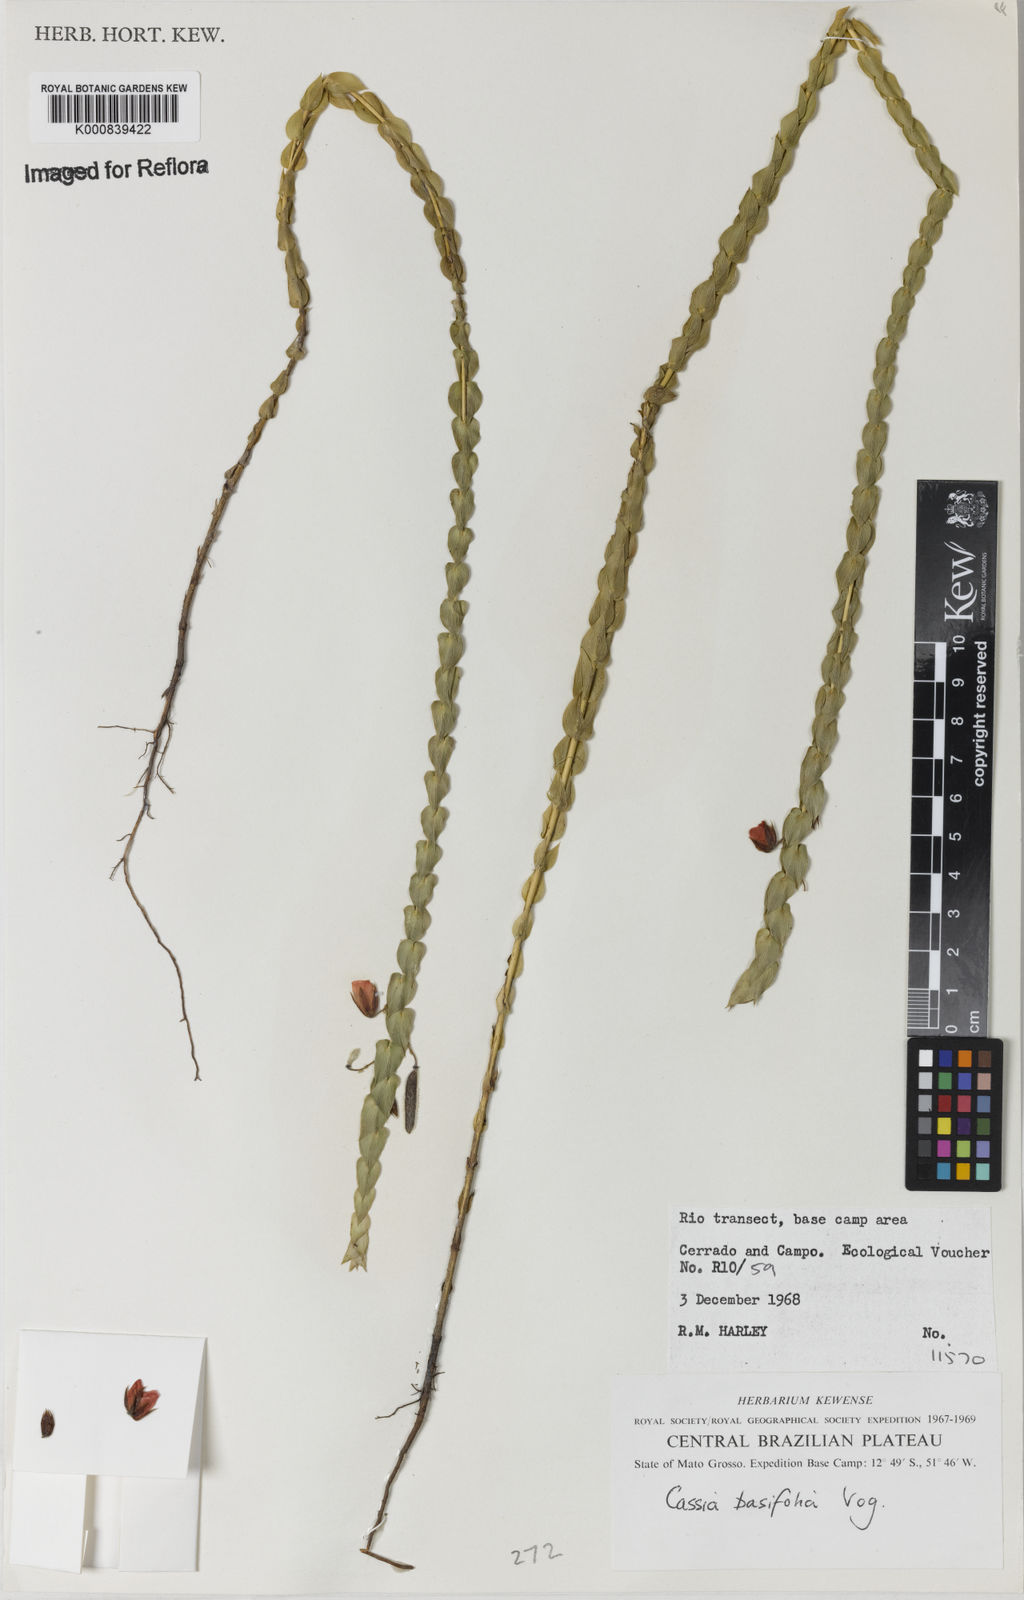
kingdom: Plantae
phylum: Tracheophyta
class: Magnoliopsida
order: Fabales
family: Fabaceae
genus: Chamaecrista
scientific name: Chamaecrista basifolia
